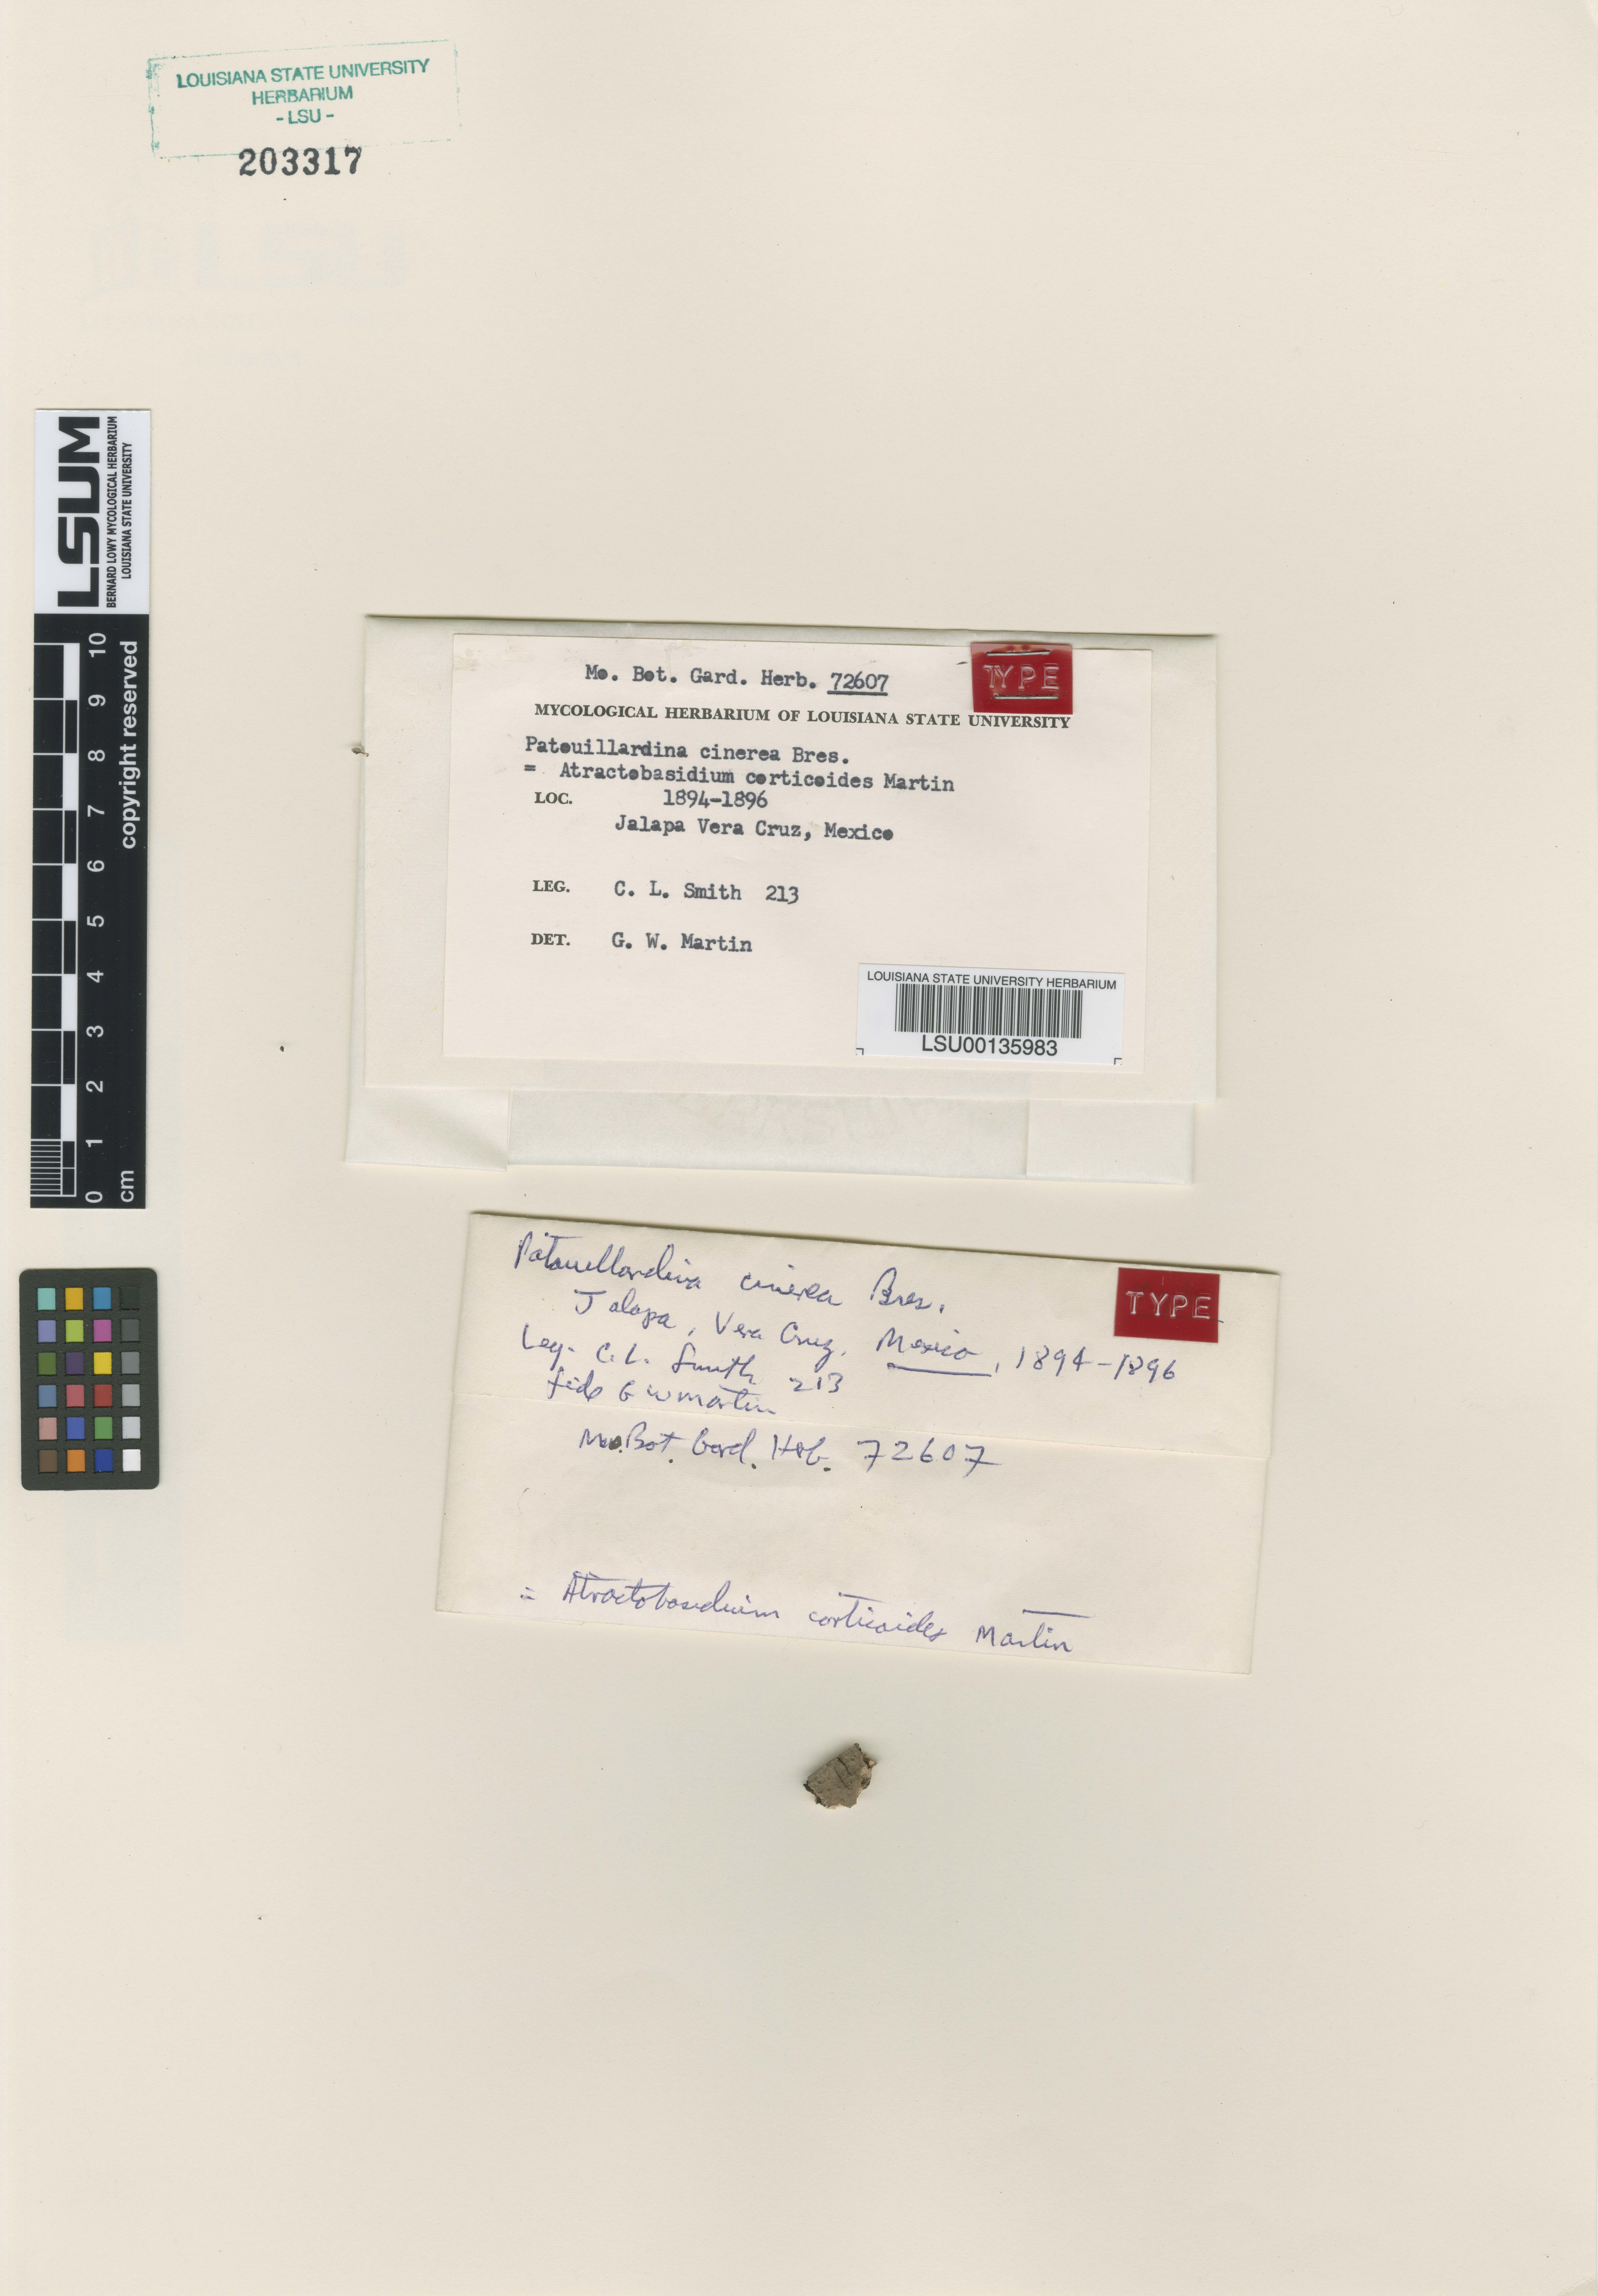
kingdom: Fungi
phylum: Basidiomycota
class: Agaricomycetes
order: Auriculariales
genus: Patouillardina
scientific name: Patouillardina cinerea
